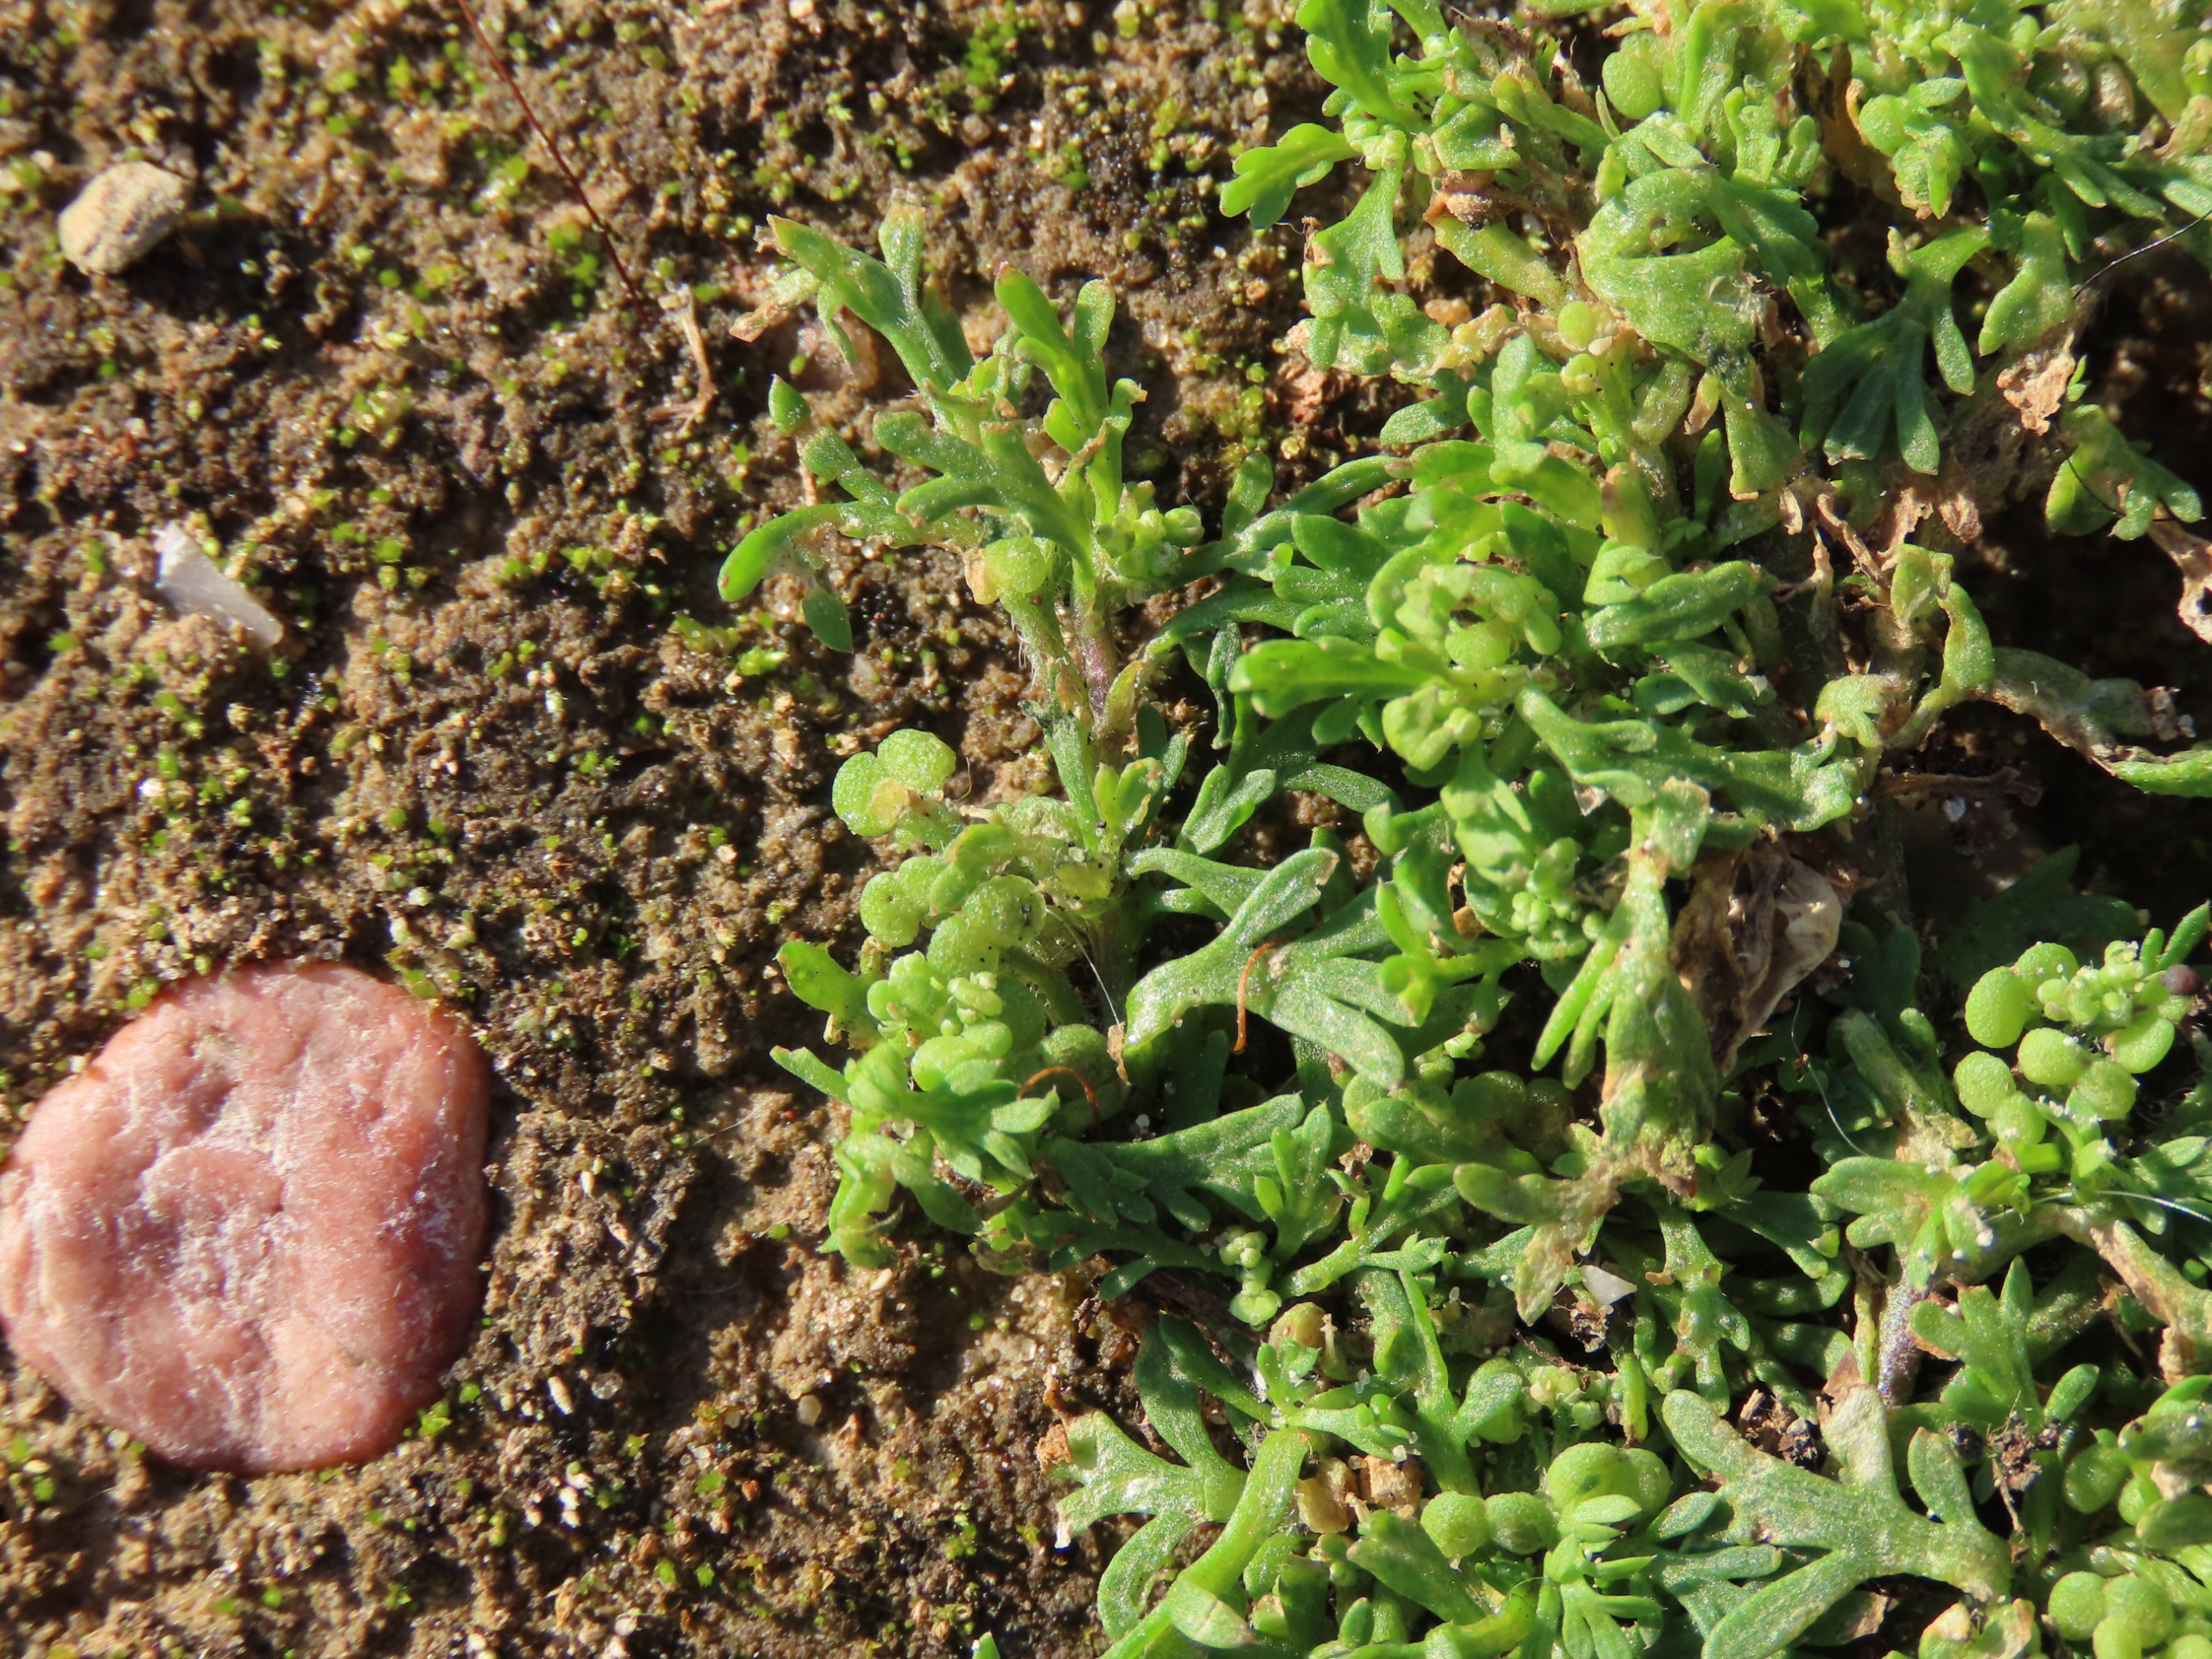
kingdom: Plantae
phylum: Tracheophyta
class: Magnoliopsida
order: Brassicales
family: Brassicaceae
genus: Lepidium
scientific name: Lepidium didymum
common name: Liden ravnefod
